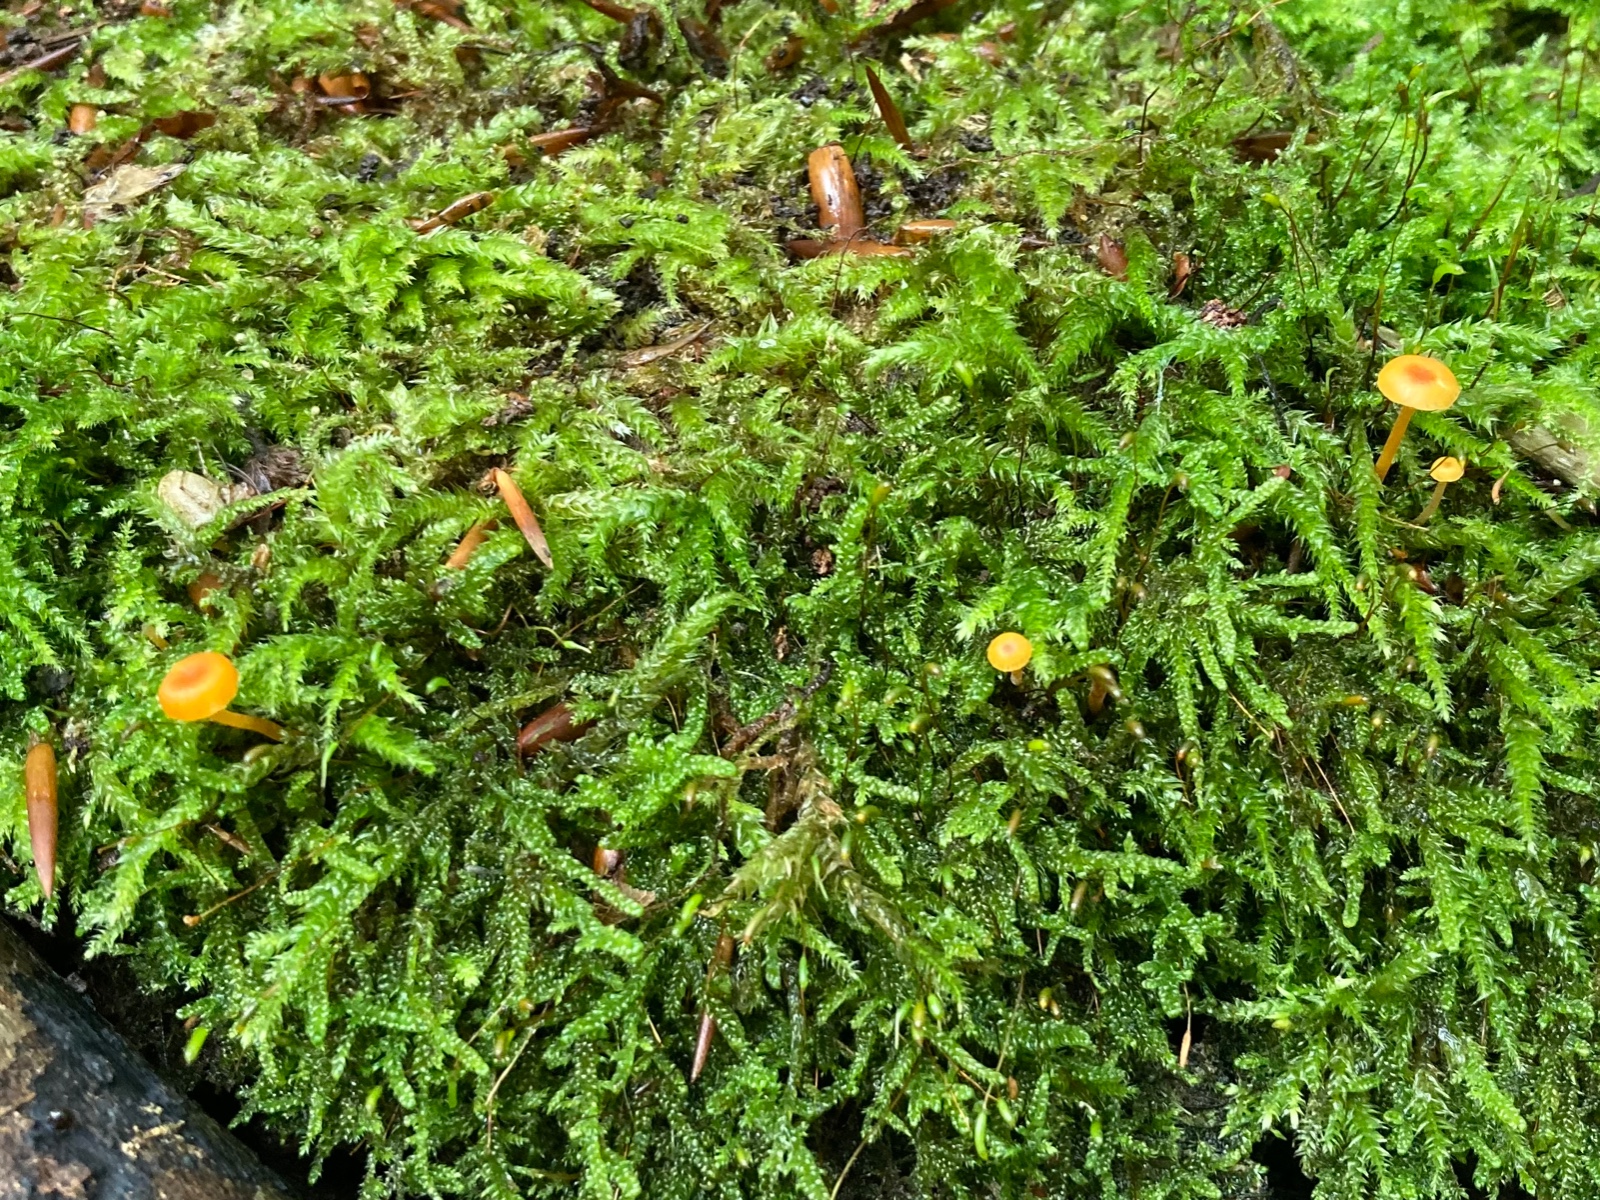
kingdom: Fungi
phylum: Basidiomycota
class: Agaricomycetes
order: Hymenochaetales
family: Rickenellaceae
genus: Rickenella
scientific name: Rickenella fibula
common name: orange mosnavlehat
